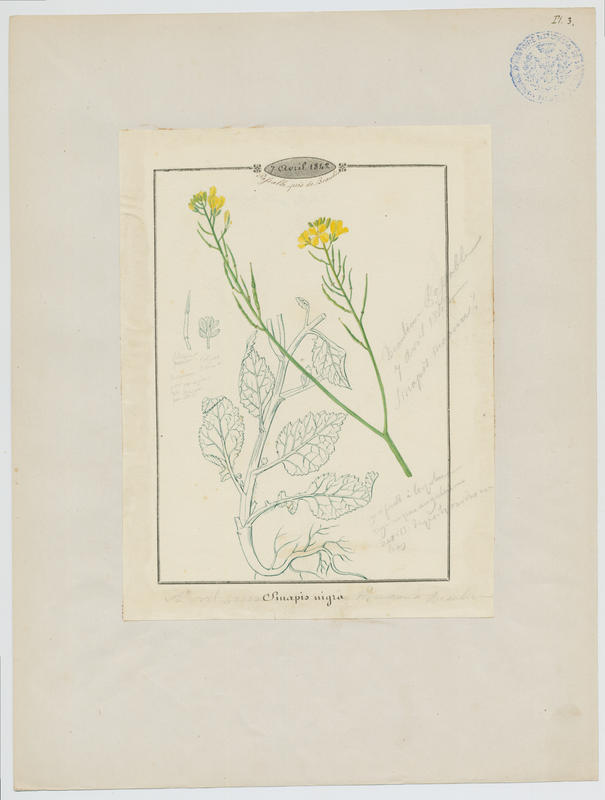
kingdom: Plantae
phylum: Tracheophyta
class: Magnoliopsida
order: Brassicales
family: Brassicaceae
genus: Brassica
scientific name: Brassica nigra
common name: Black mustard
